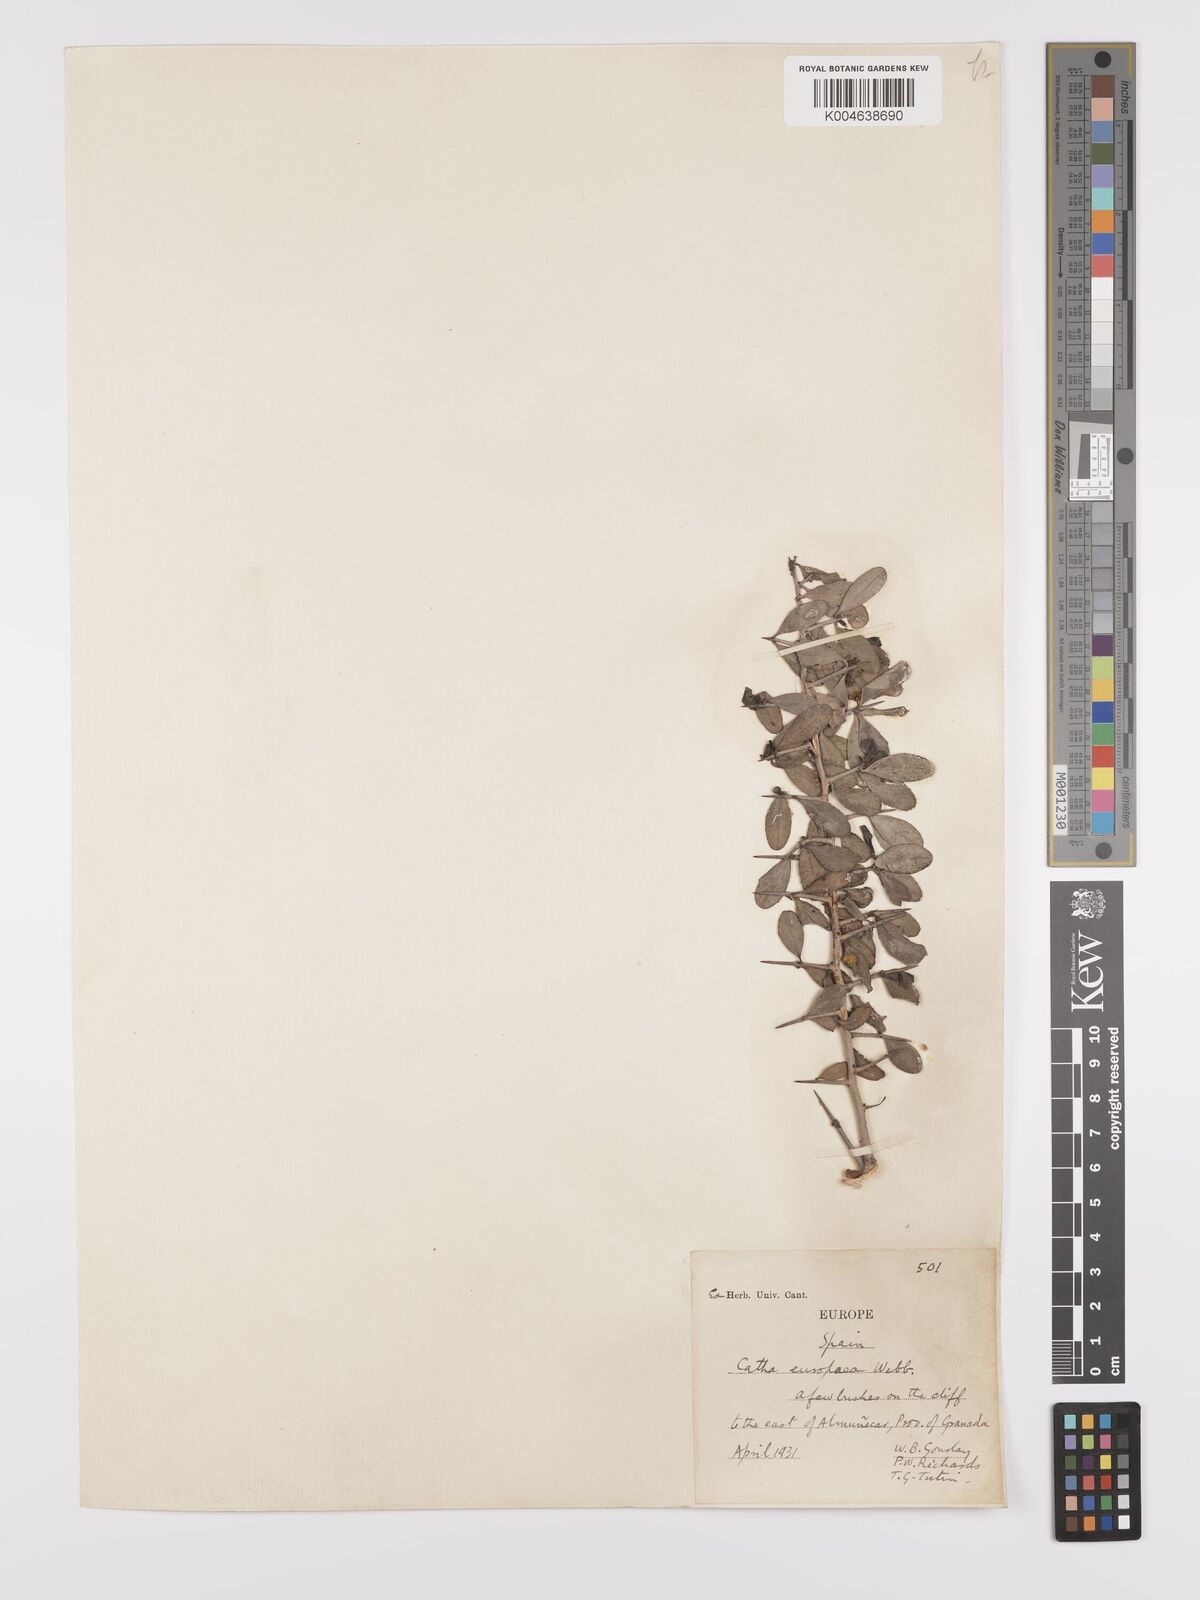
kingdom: Plantae
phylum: Tracheophyta
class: Magnoliopsida
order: Celastrales
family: Celastraceae
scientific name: Celastraceae
